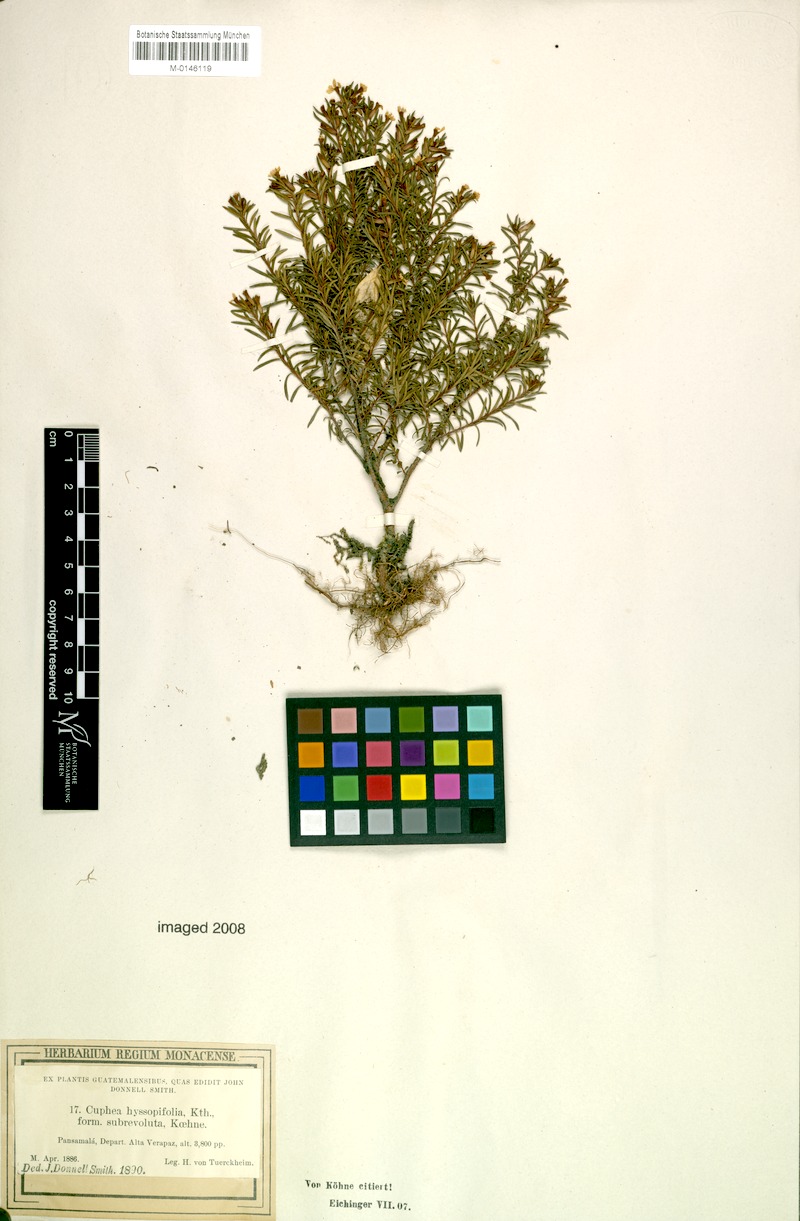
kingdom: Plantae
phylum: Tracheophyta
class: Magnoliopsida
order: Myrtales
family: Lythraceae
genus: Cuphea
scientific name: Cuphea hyssopifolia
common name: False heather
